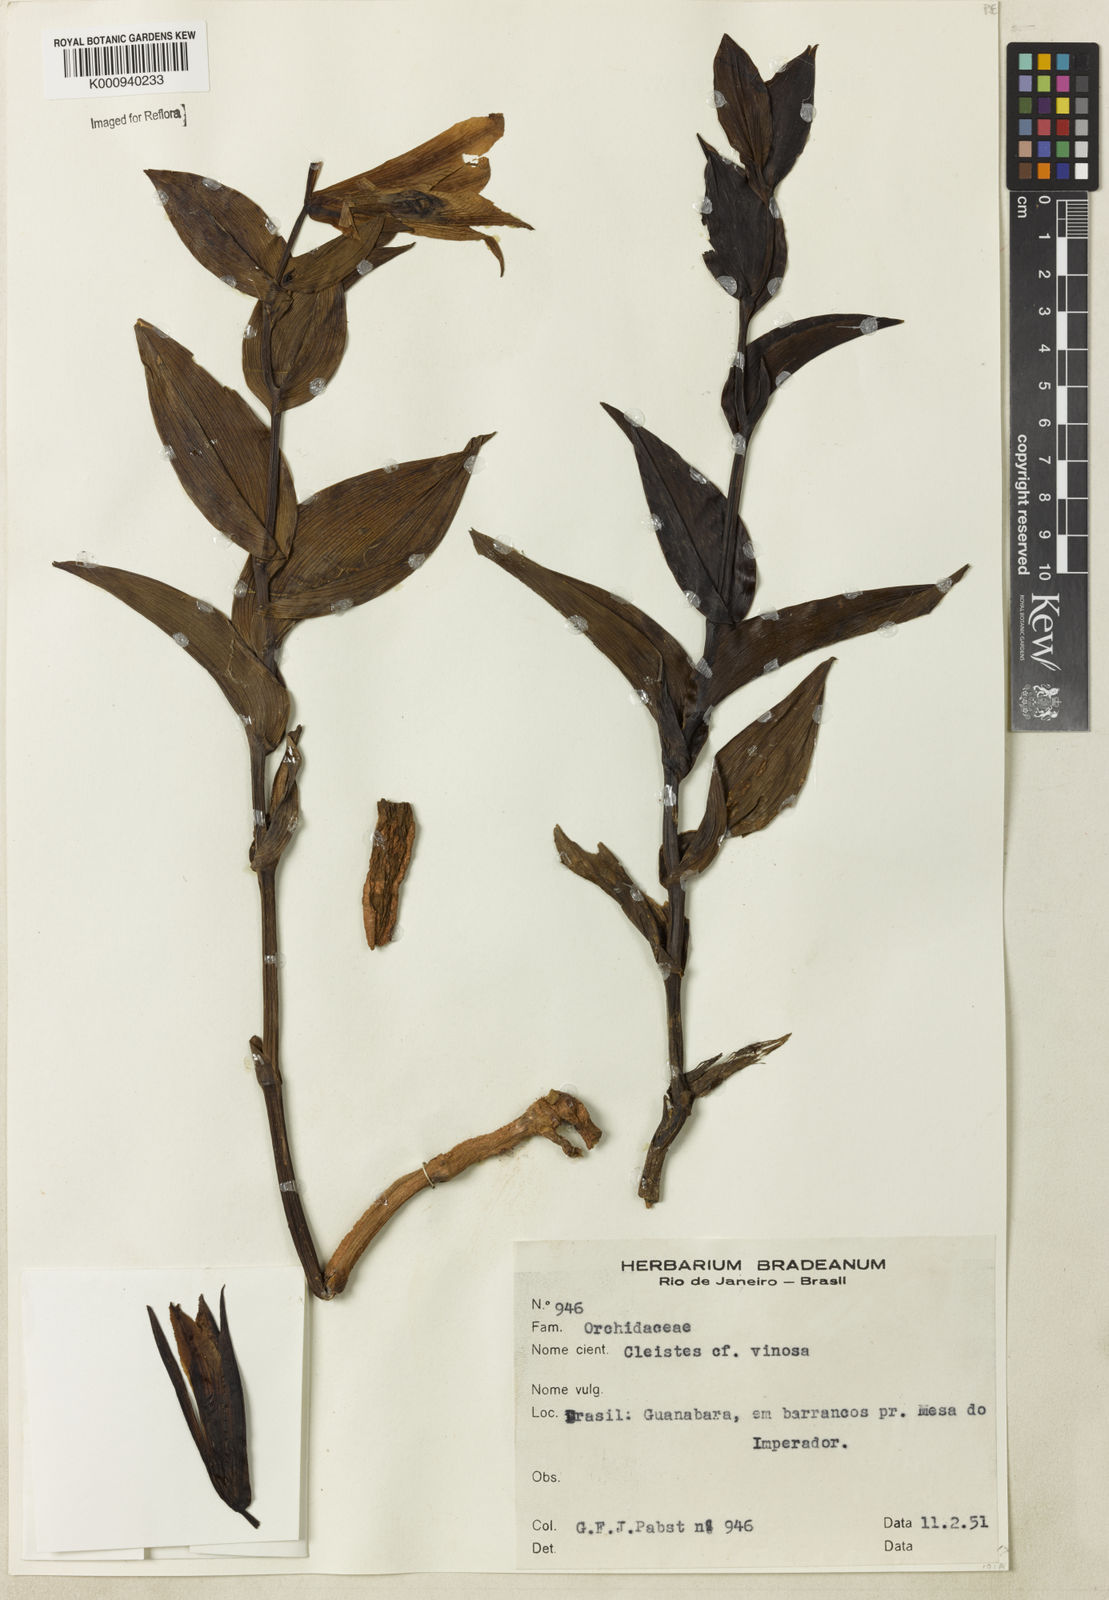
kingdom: Plantae
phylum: Tracheophyta
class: Liliopsida
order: Asparagales
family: Orchidaceae
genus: Cleistes
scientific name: Cleistes libonii
